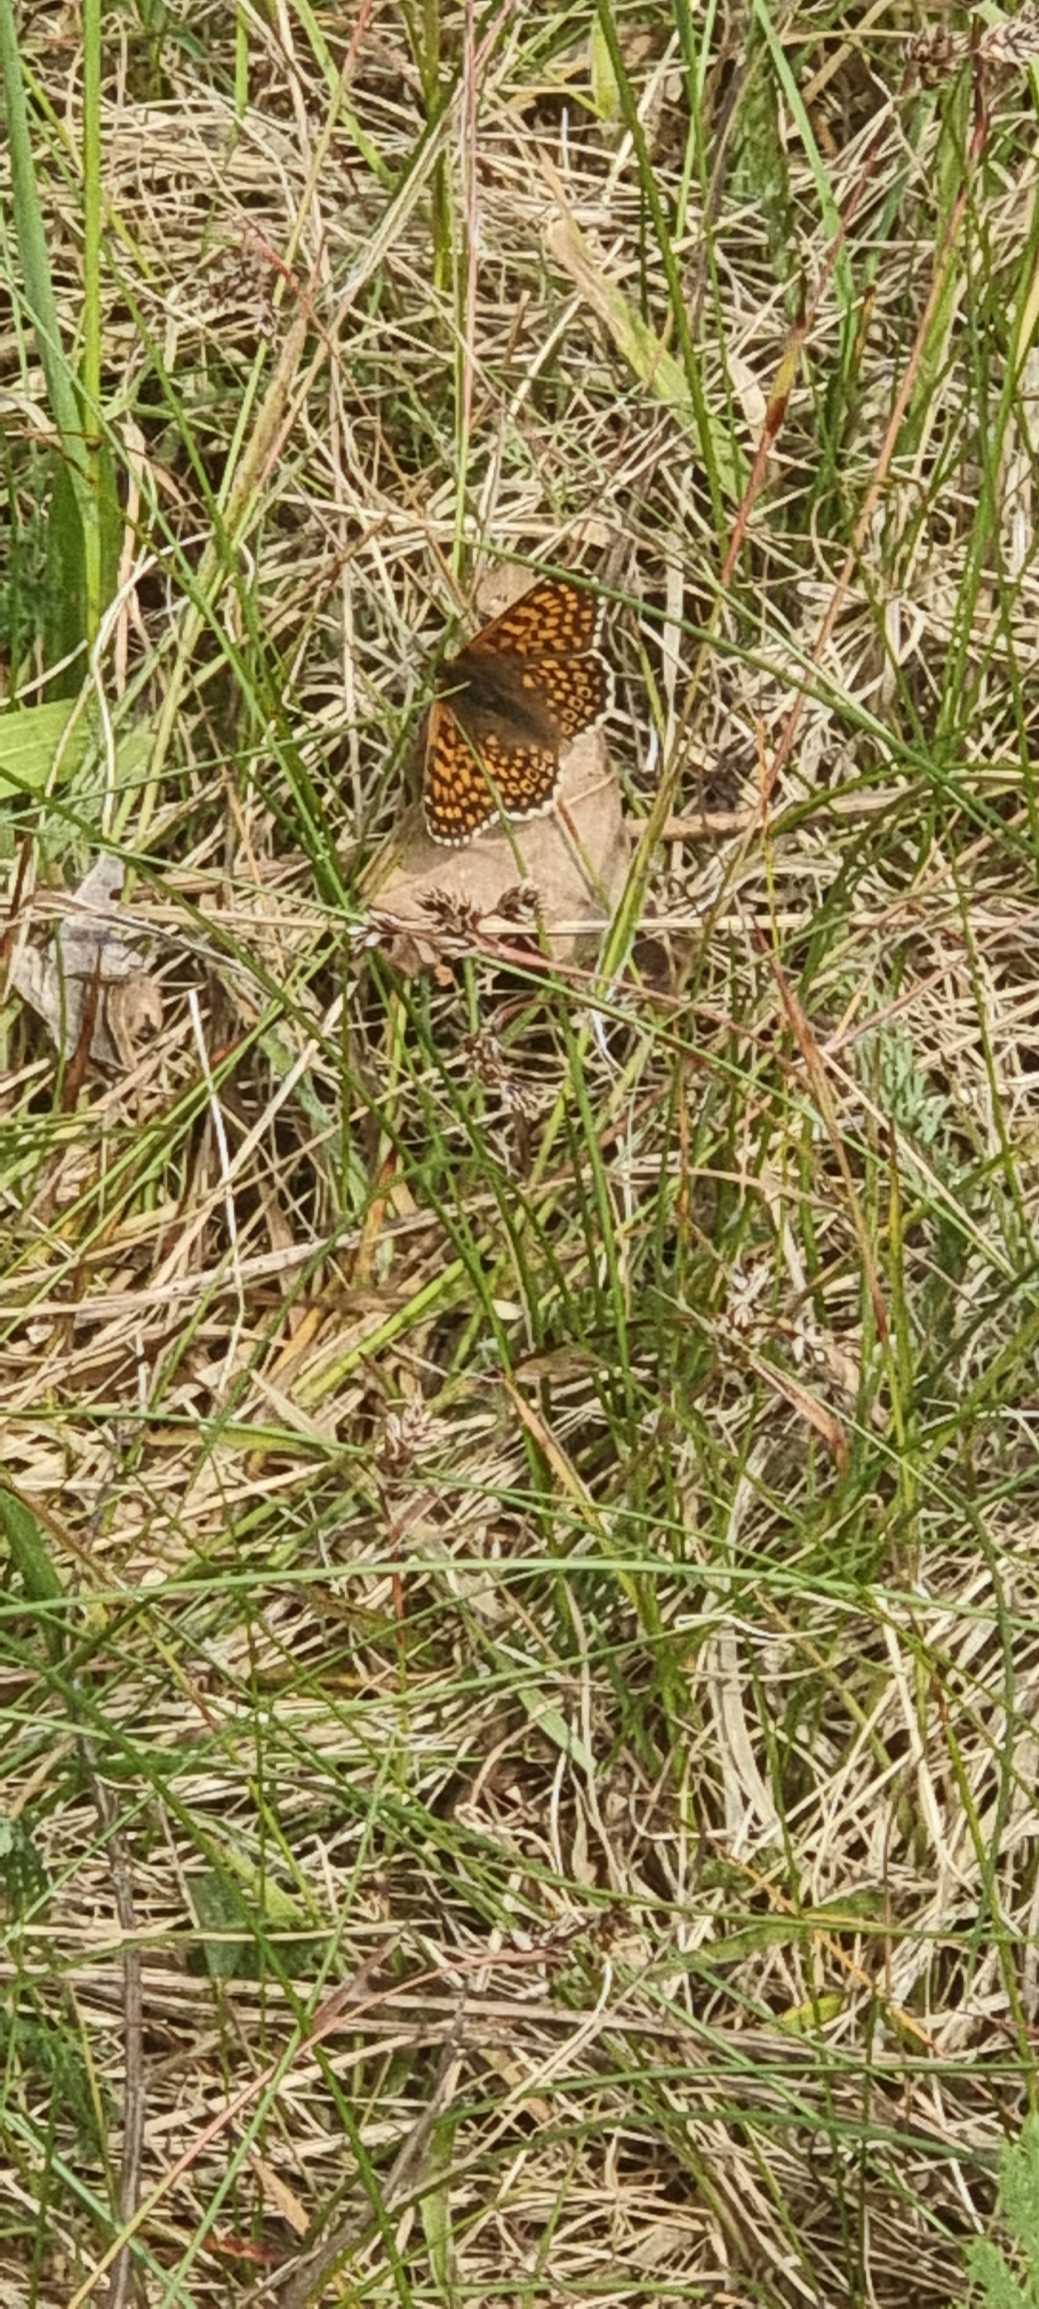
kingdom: Animalia
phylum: Arthropoda
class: Insecta
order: Lepidoptera
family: Nymphalidae
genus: Melitaea
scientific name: Melitaea cinxia
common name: Okkergul pletvinge
